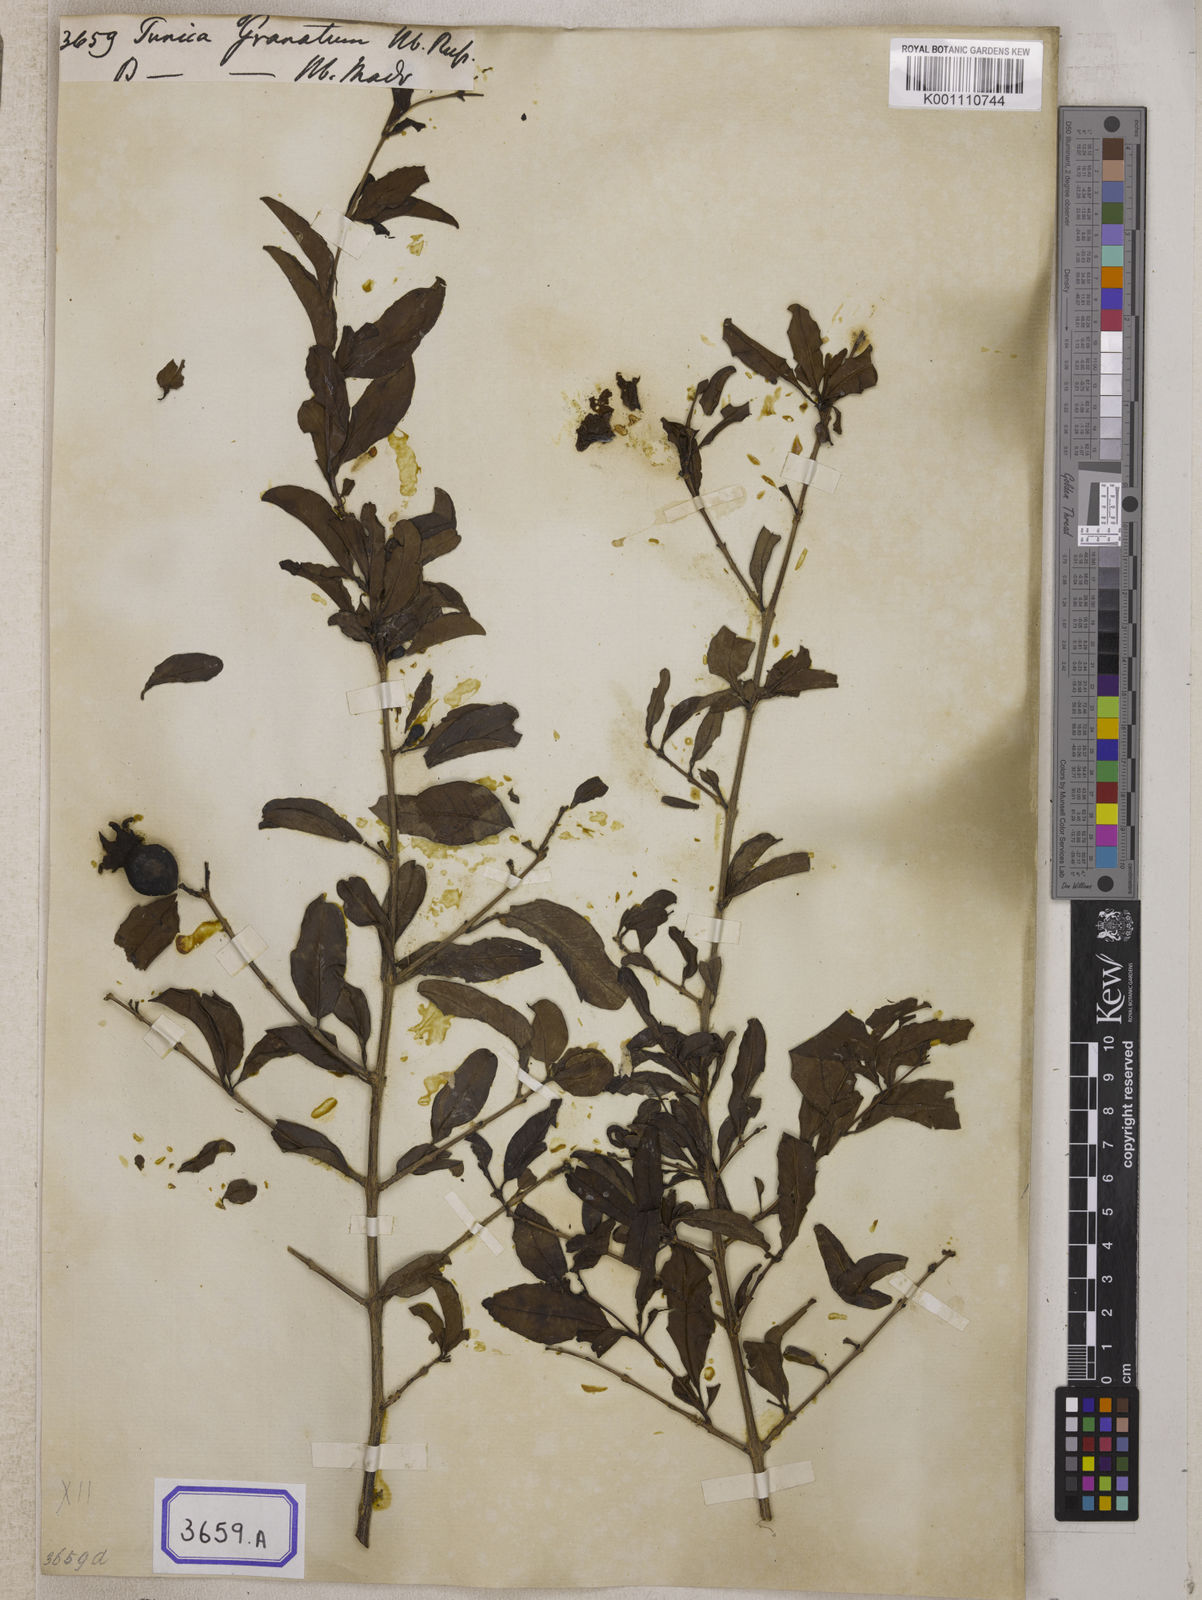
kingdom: Plantae
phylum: Tracheophyta
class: Magnoliopsida
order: Myrtales
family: Lythraceae
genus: Punica
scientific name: Punica granatum
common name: Pomegranate
